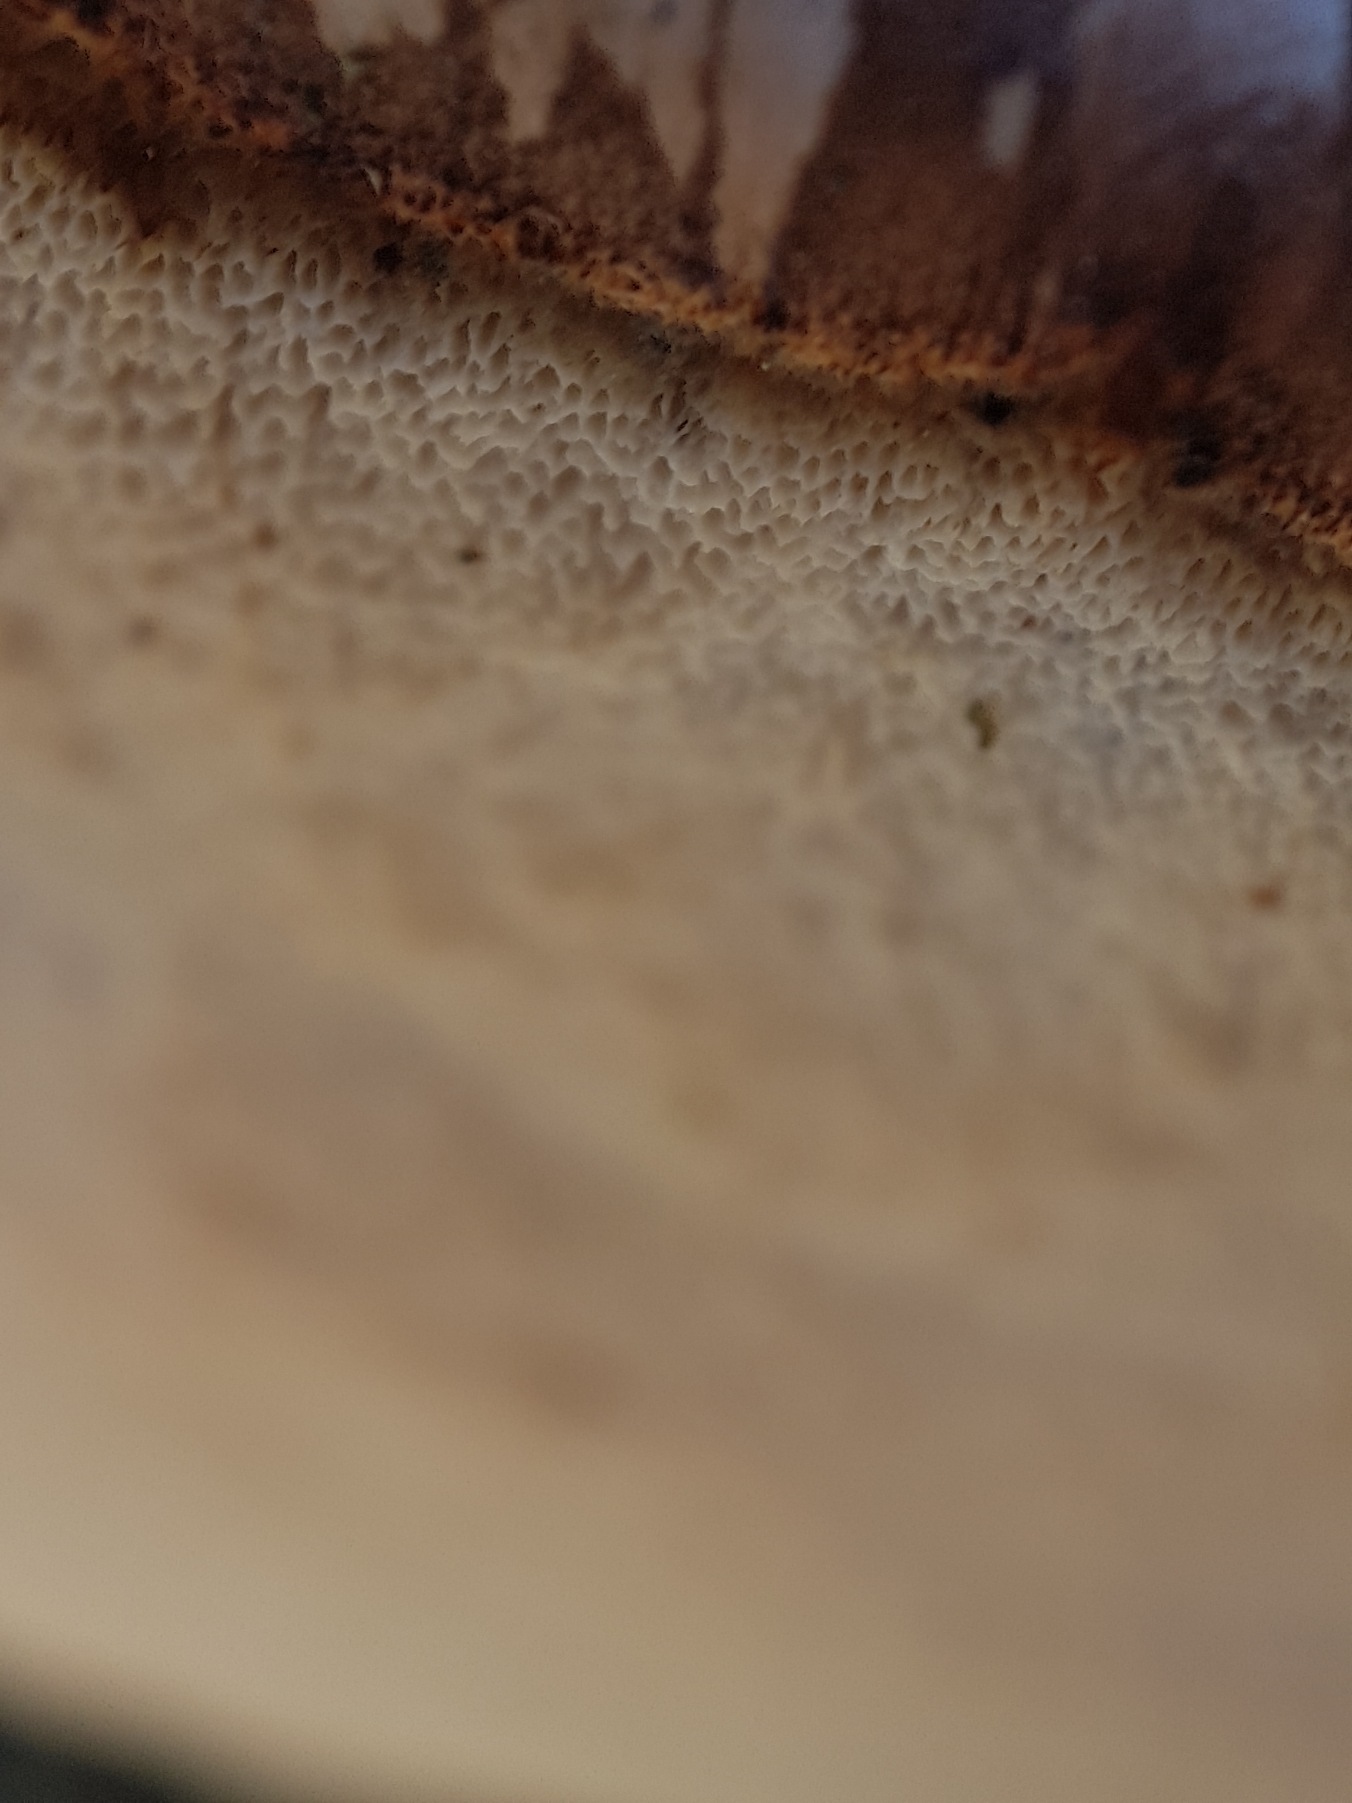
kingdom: Fungi
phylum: Basidiomycota
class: Agaricomycetes
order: Polyporales
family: Fomitopsidaceae
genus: Fomitopsis
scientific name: Fomitopsis betulina
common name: Birkeporesvamp
